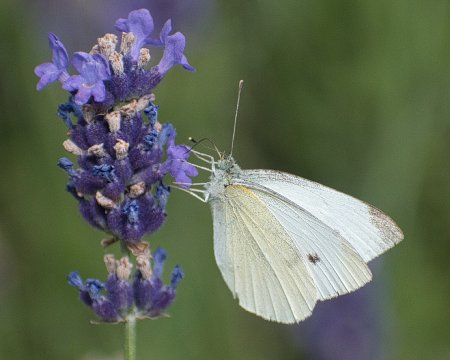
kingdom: Animalia
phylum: Arthropoda
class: Insecta
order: Lepidoptera
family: Pieridae
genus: Pieris
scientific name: Pieris rapae
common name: Cabbage White
